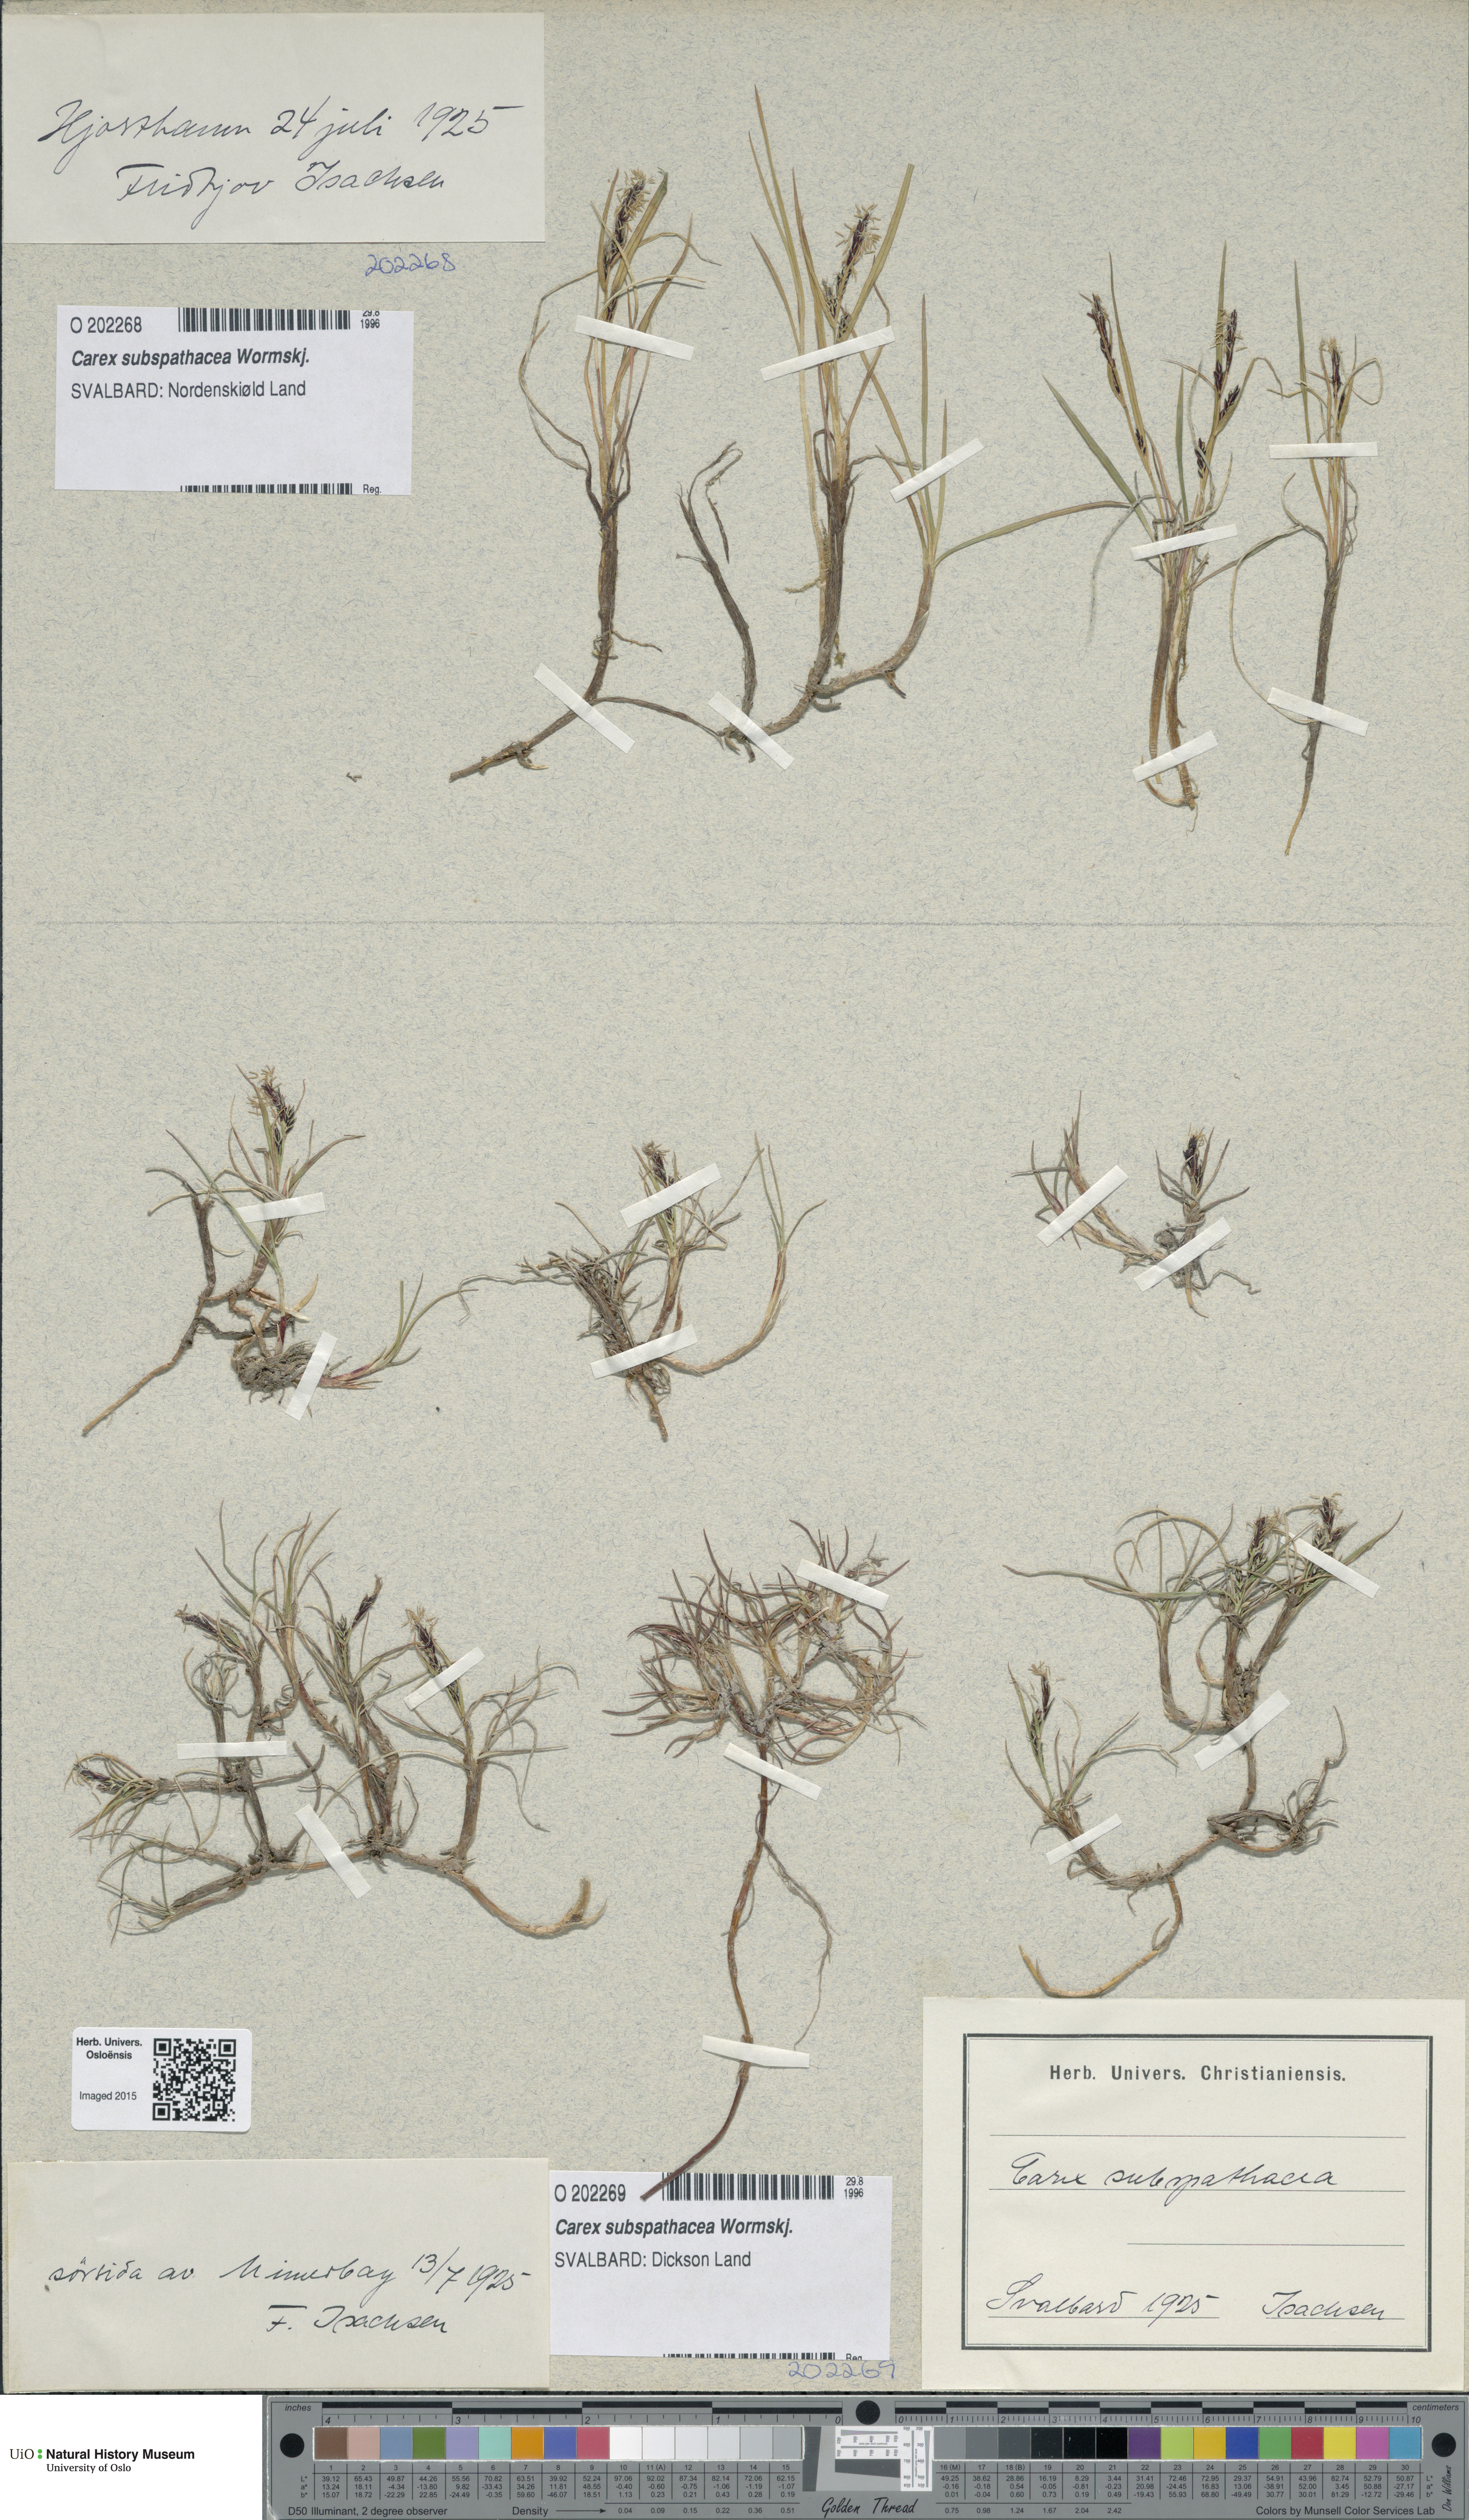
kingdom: Plantae
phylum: Tracheophyta
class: Liliopsida
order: Poales
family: Cyperaceae
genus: Carex
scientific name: Carex subspathacea
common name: Hoppner's sedge
